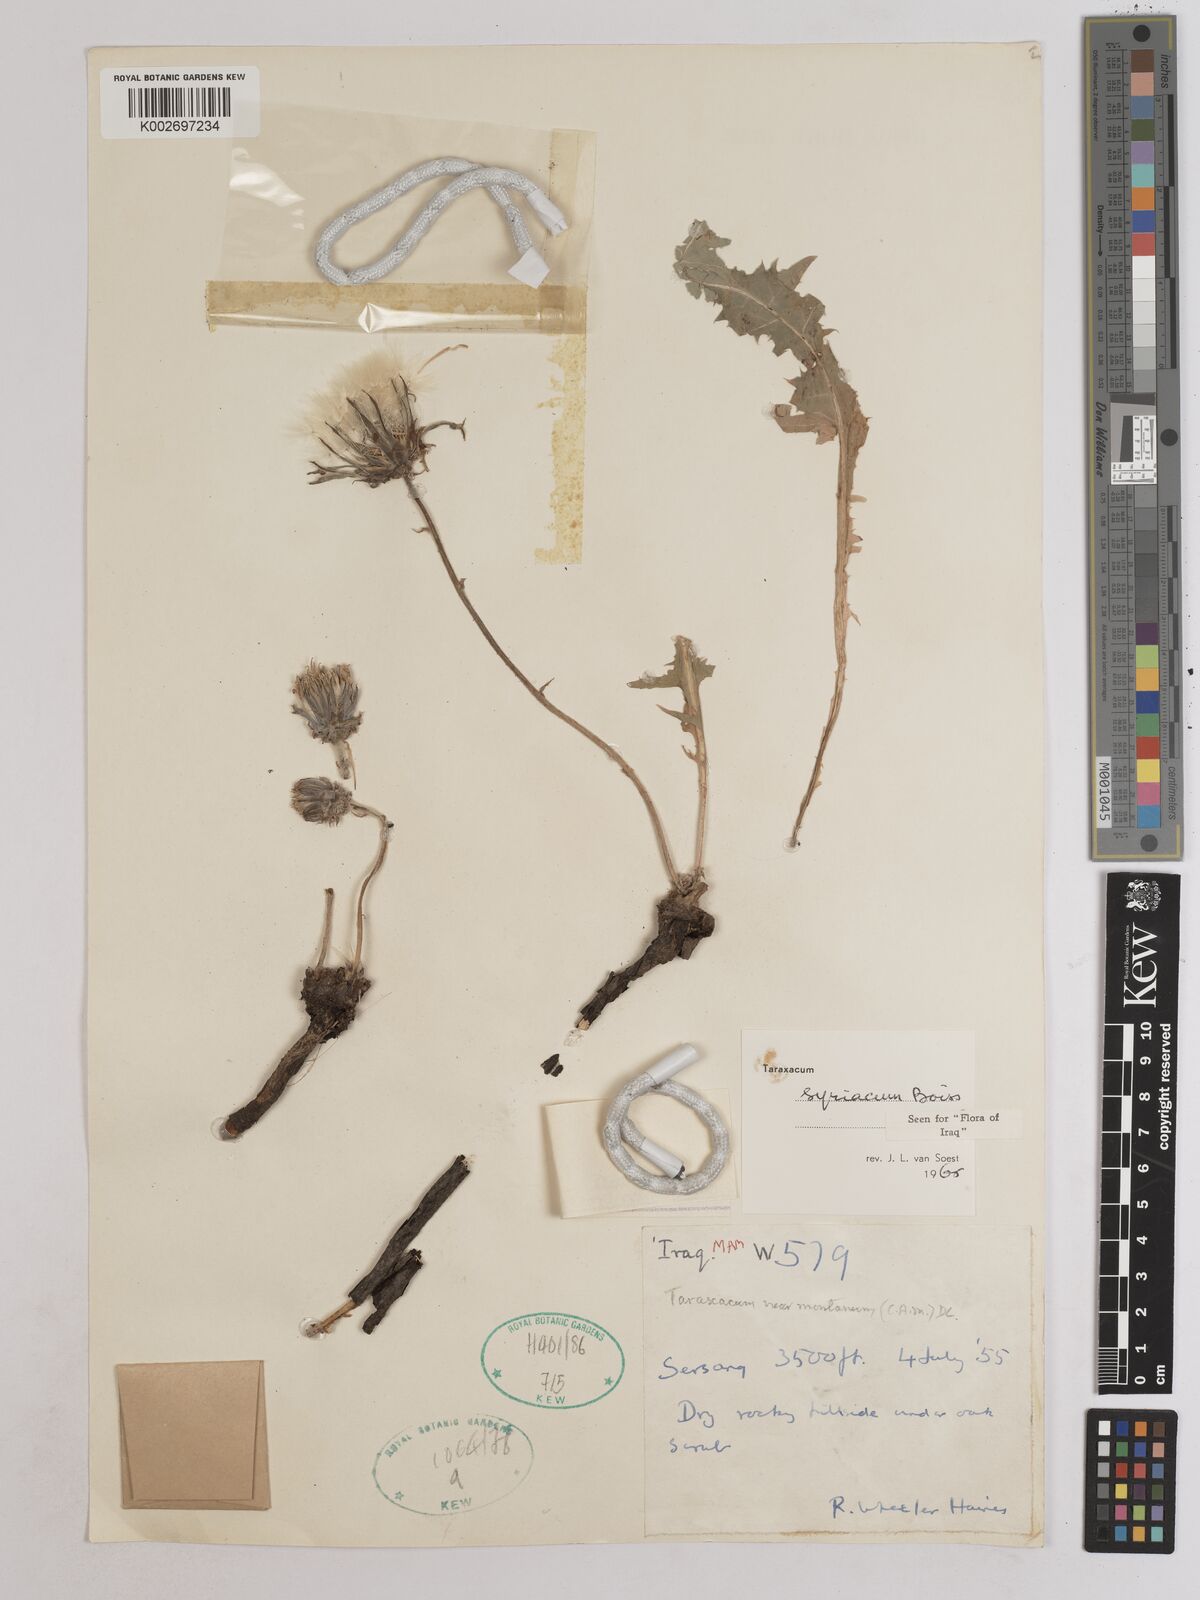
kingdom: Plantae
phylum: Tracheophyta
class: Magnoliopsida
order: Asterales
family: Asteraceae
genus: Taraxacum
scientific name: Taraxacum syriacum
